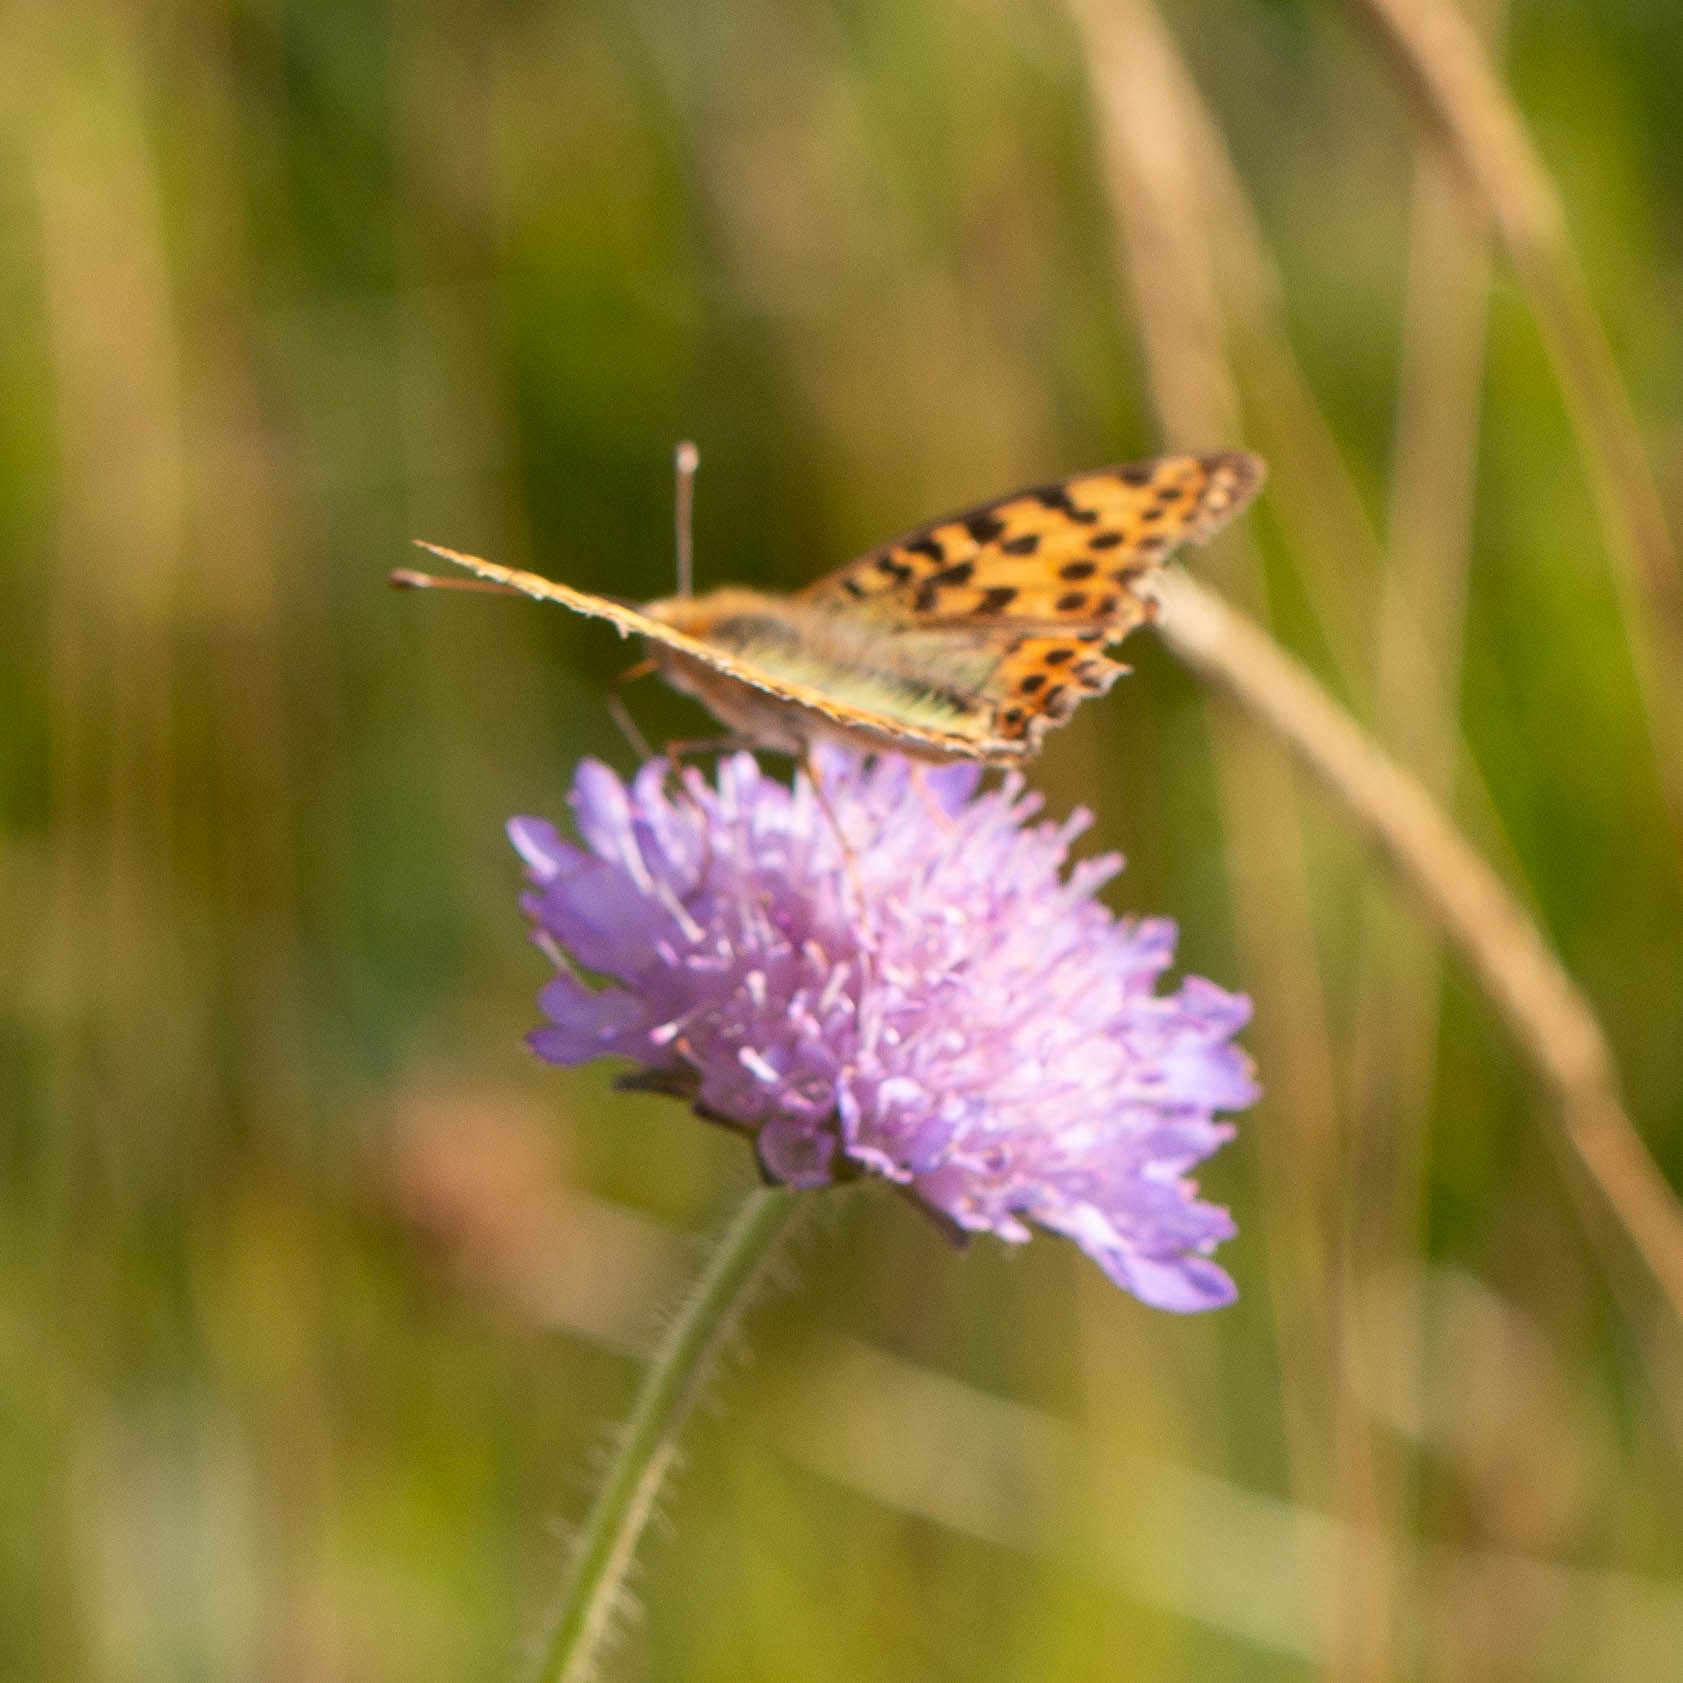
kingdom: Animalia
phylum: Arthropoda
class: Insecta
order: Lepidoptera
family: Nymphalidae
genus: Issoria
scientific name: Issoria lathonia
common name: Storplettet perlemorsommerfugl
